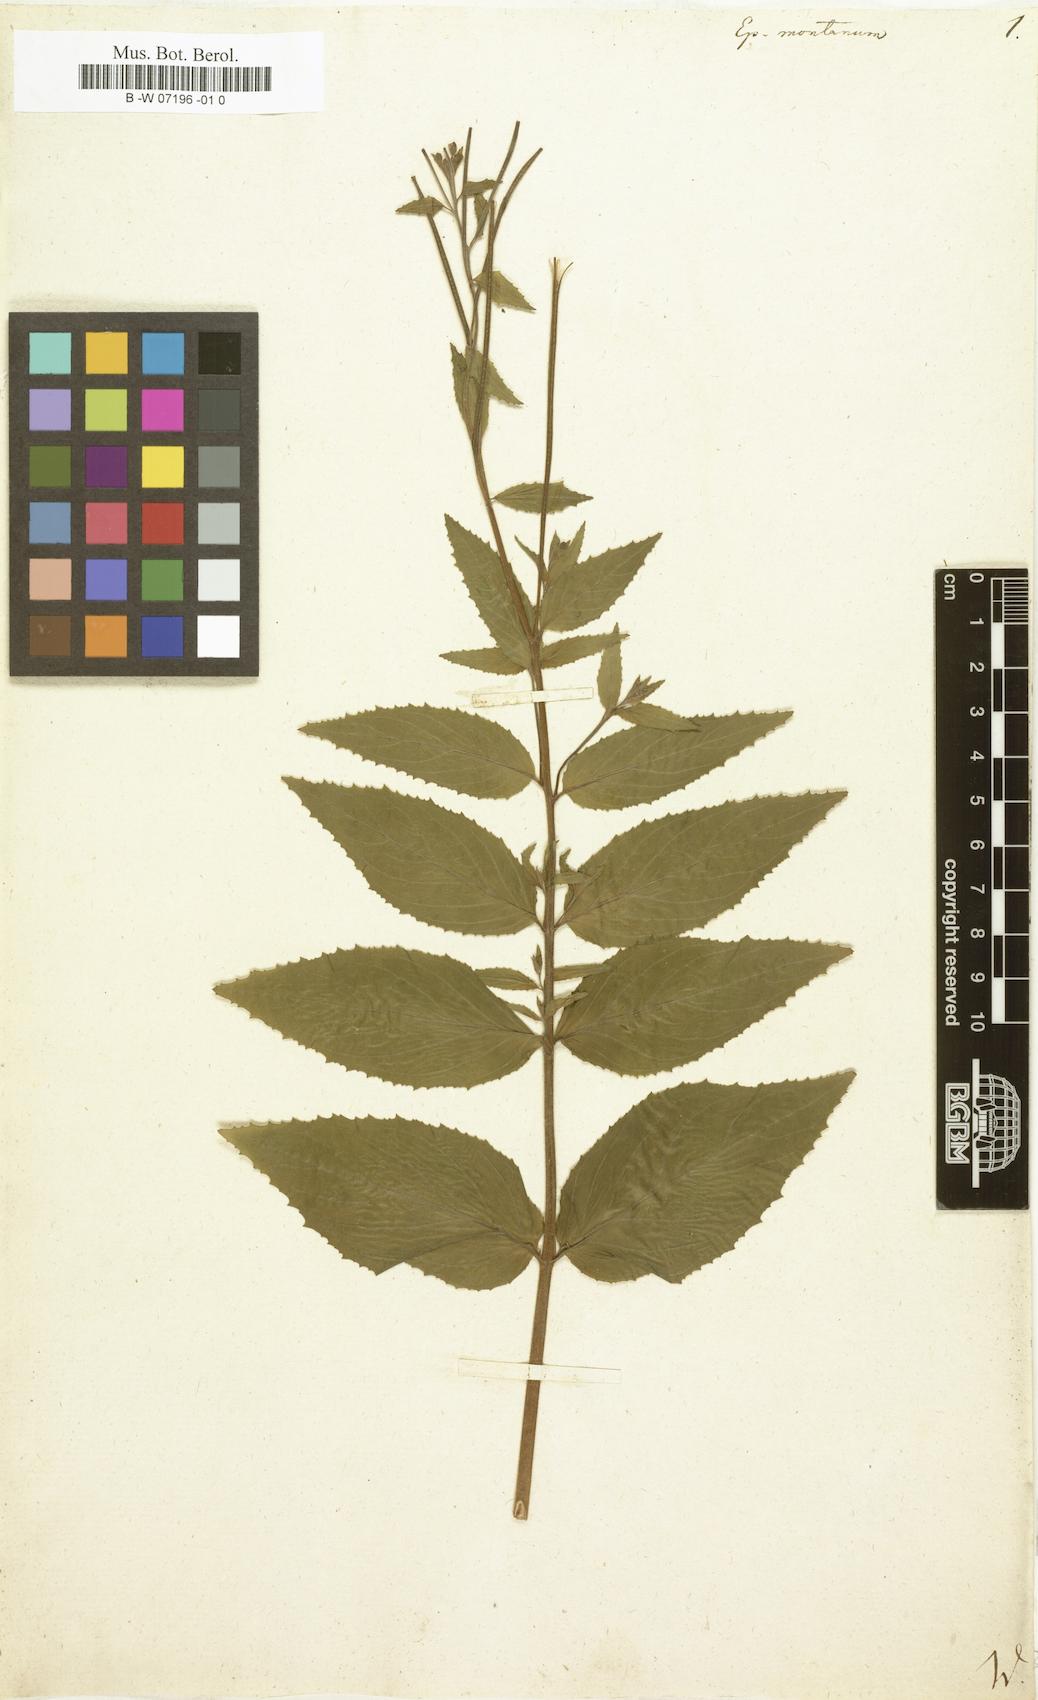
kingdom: Plantae
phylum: Tracheophyta
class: Magnoliopsida
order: Myrtales
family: Onagraceae
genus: Epilobium
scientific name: Epilobium montanum
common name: Broad-leaved willowherb
